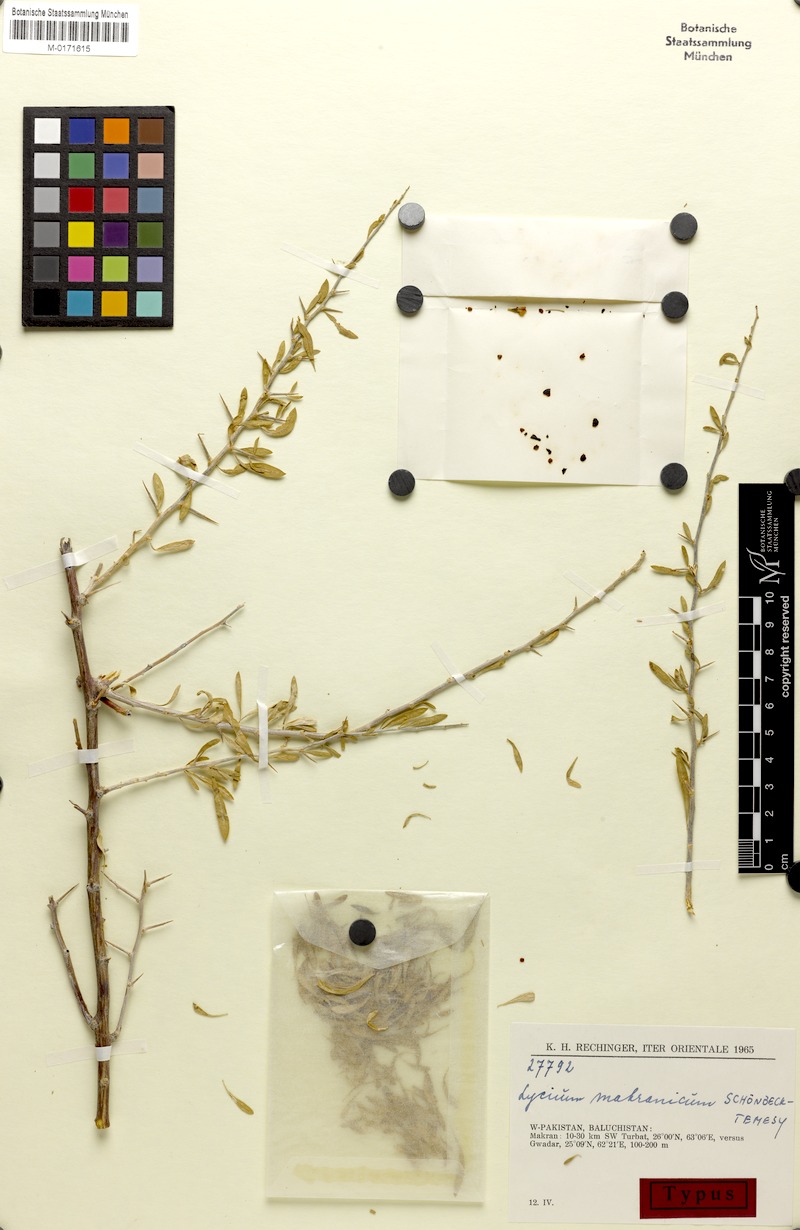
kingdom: Plantae
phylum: Tracheophyta
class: Magnoliopsida
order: Solanales
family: Solanaceae
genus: Lycium
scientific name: Lycium makranicum
